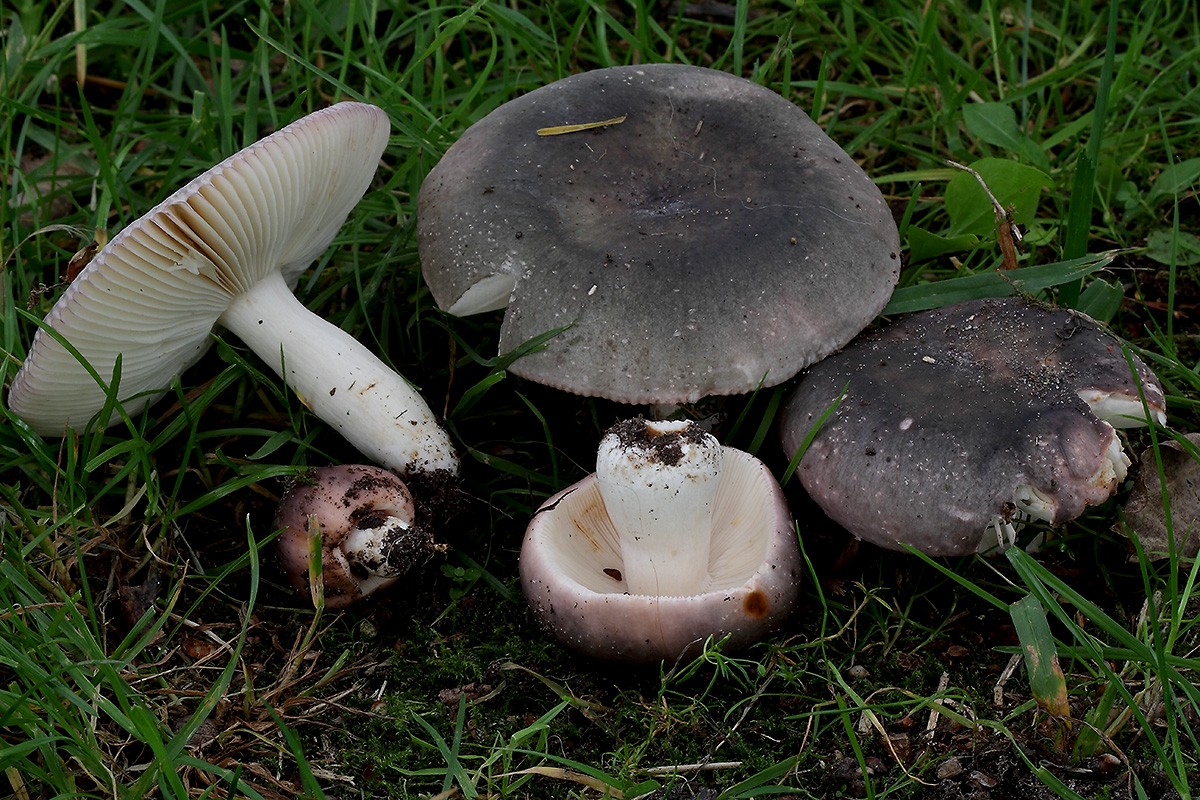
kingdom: Fungi
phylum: Basidiomycota
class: Agaricomycetes
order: Russulales
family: Russulaceae
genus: Russula
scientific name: Russula grisea
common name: grålig skørhat
